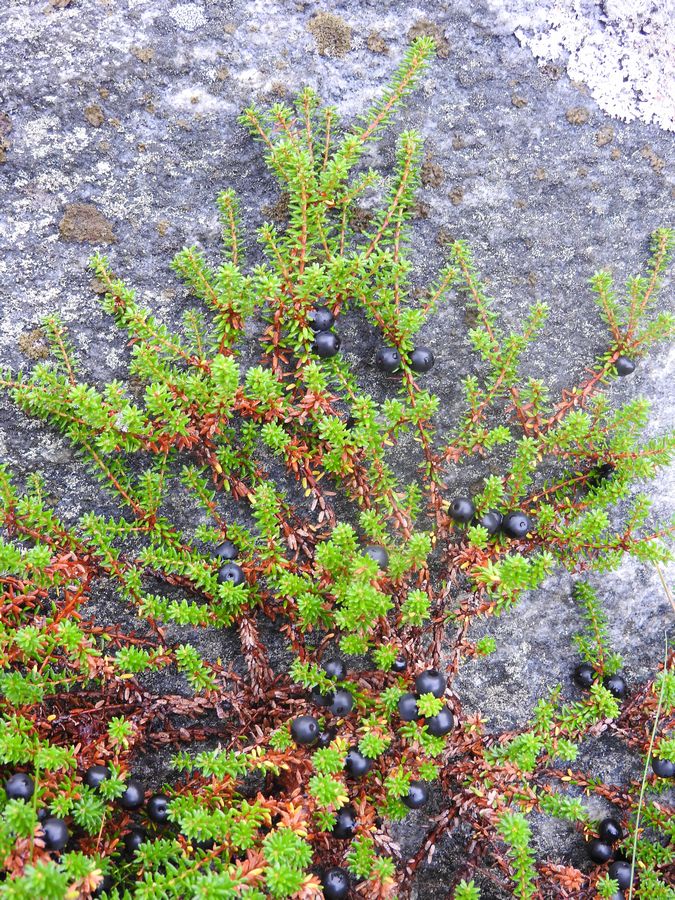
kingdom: Plantae
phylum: Tracheophyta
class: Magnoliopsida
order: Ericales
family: Ericaceae
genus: Empetrum
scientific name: Empetrum hermaphroditum
